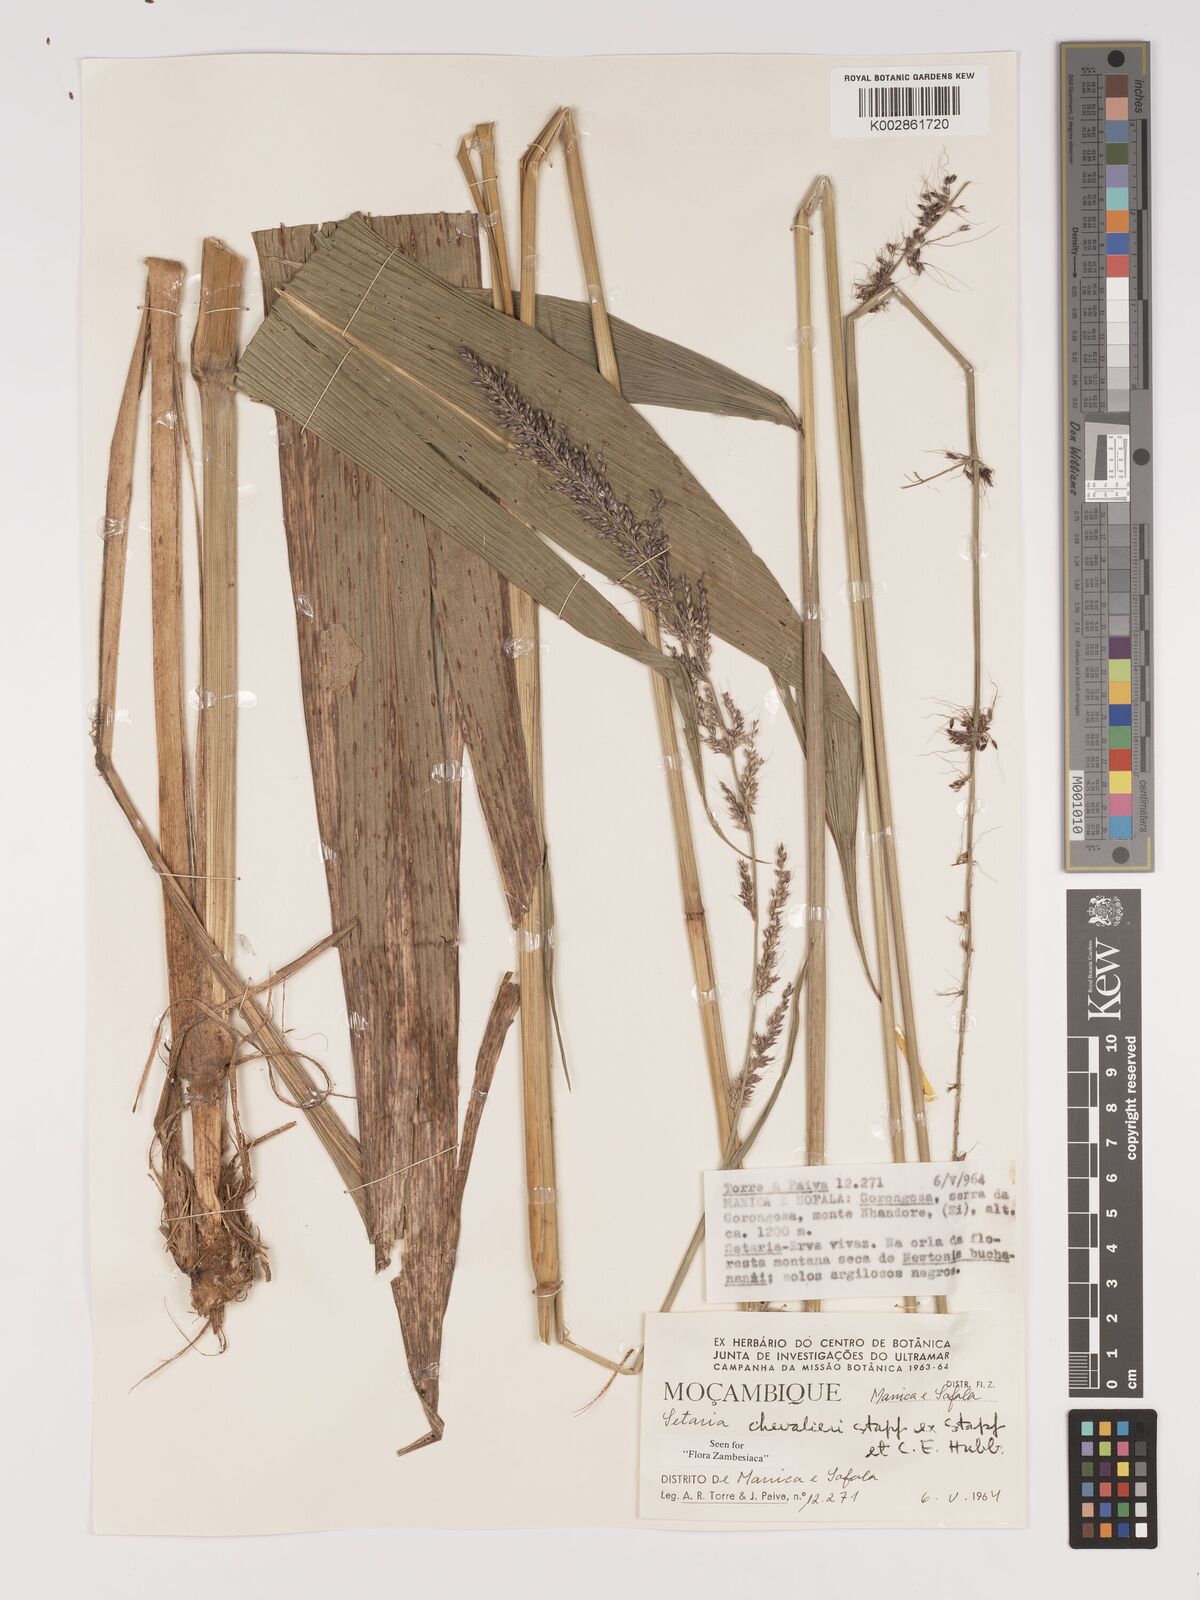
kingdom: Plantae
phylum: Tracheophyta
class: Liliopsida
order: Poales
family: Poaceae
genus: Setaria
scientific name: Setaria megaphylla
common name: Bigleaf bristlegrass
